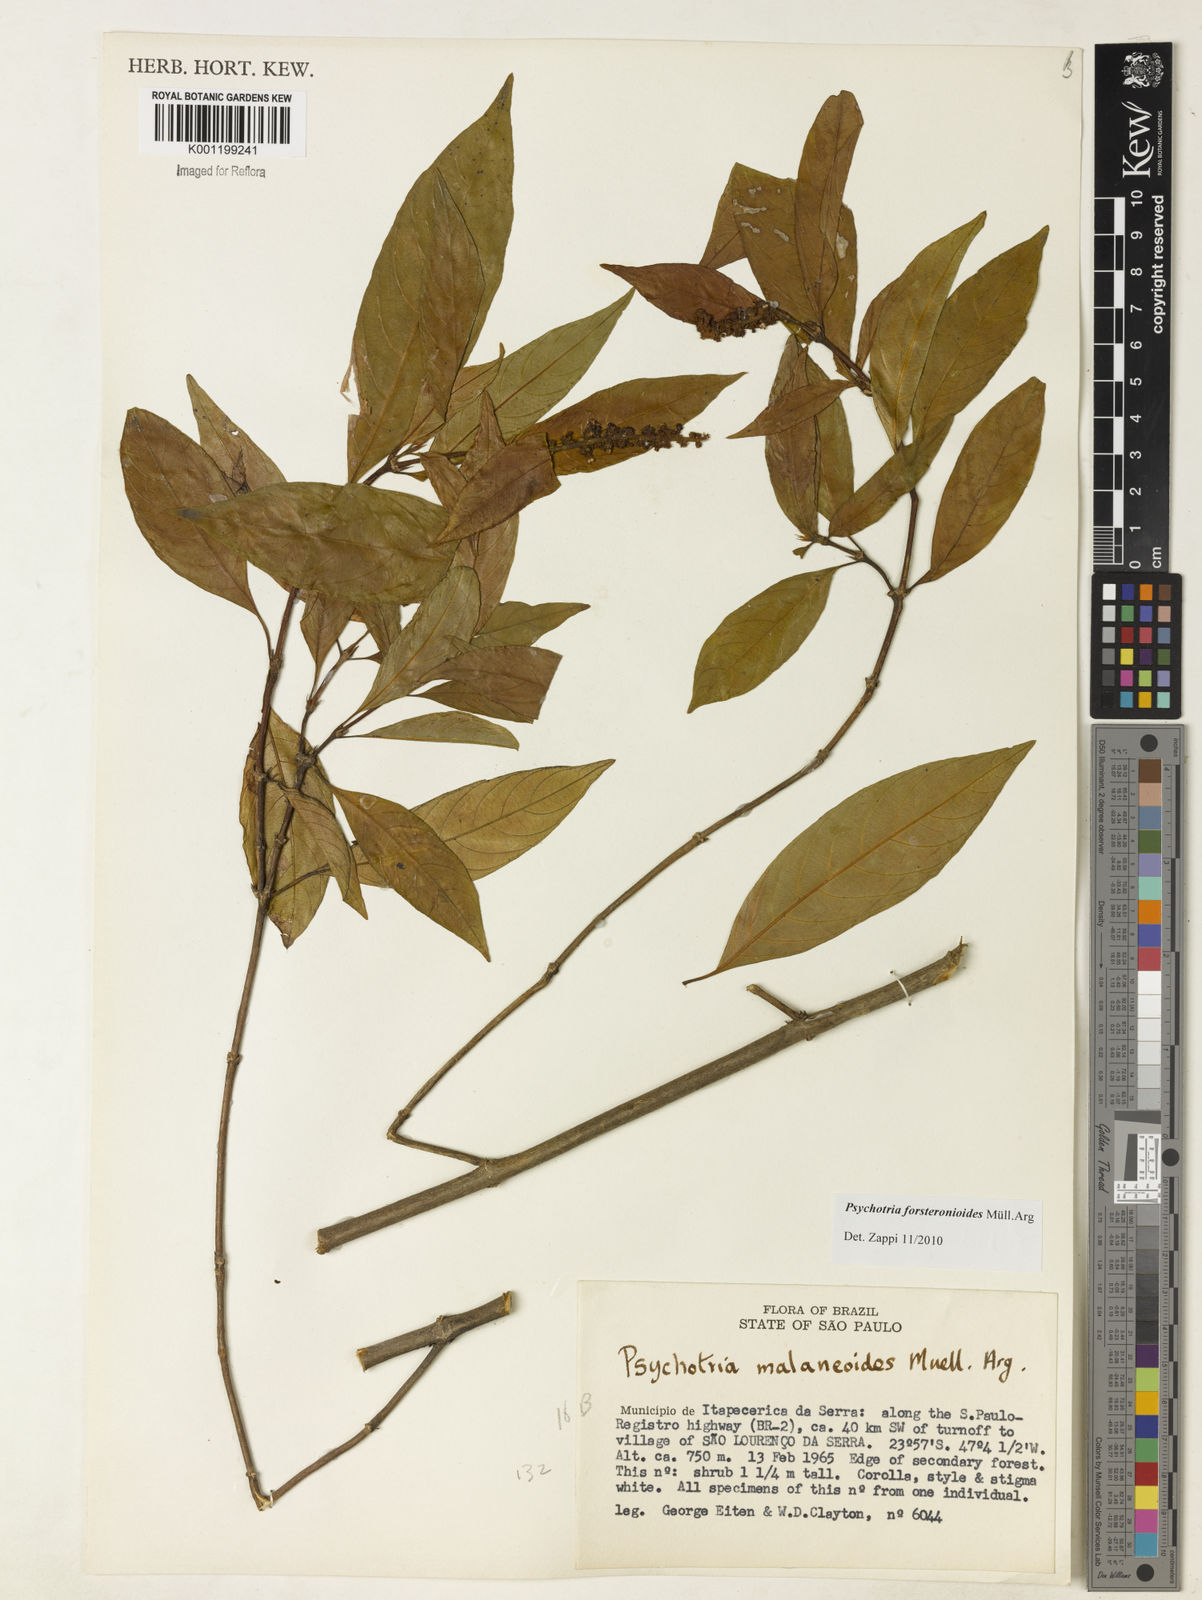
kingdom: Plantae
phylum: Tracheophyta
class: Magnoliopsida
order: Gentianales
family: Rubiaceae
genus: Psychotria
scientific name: Psychotria
